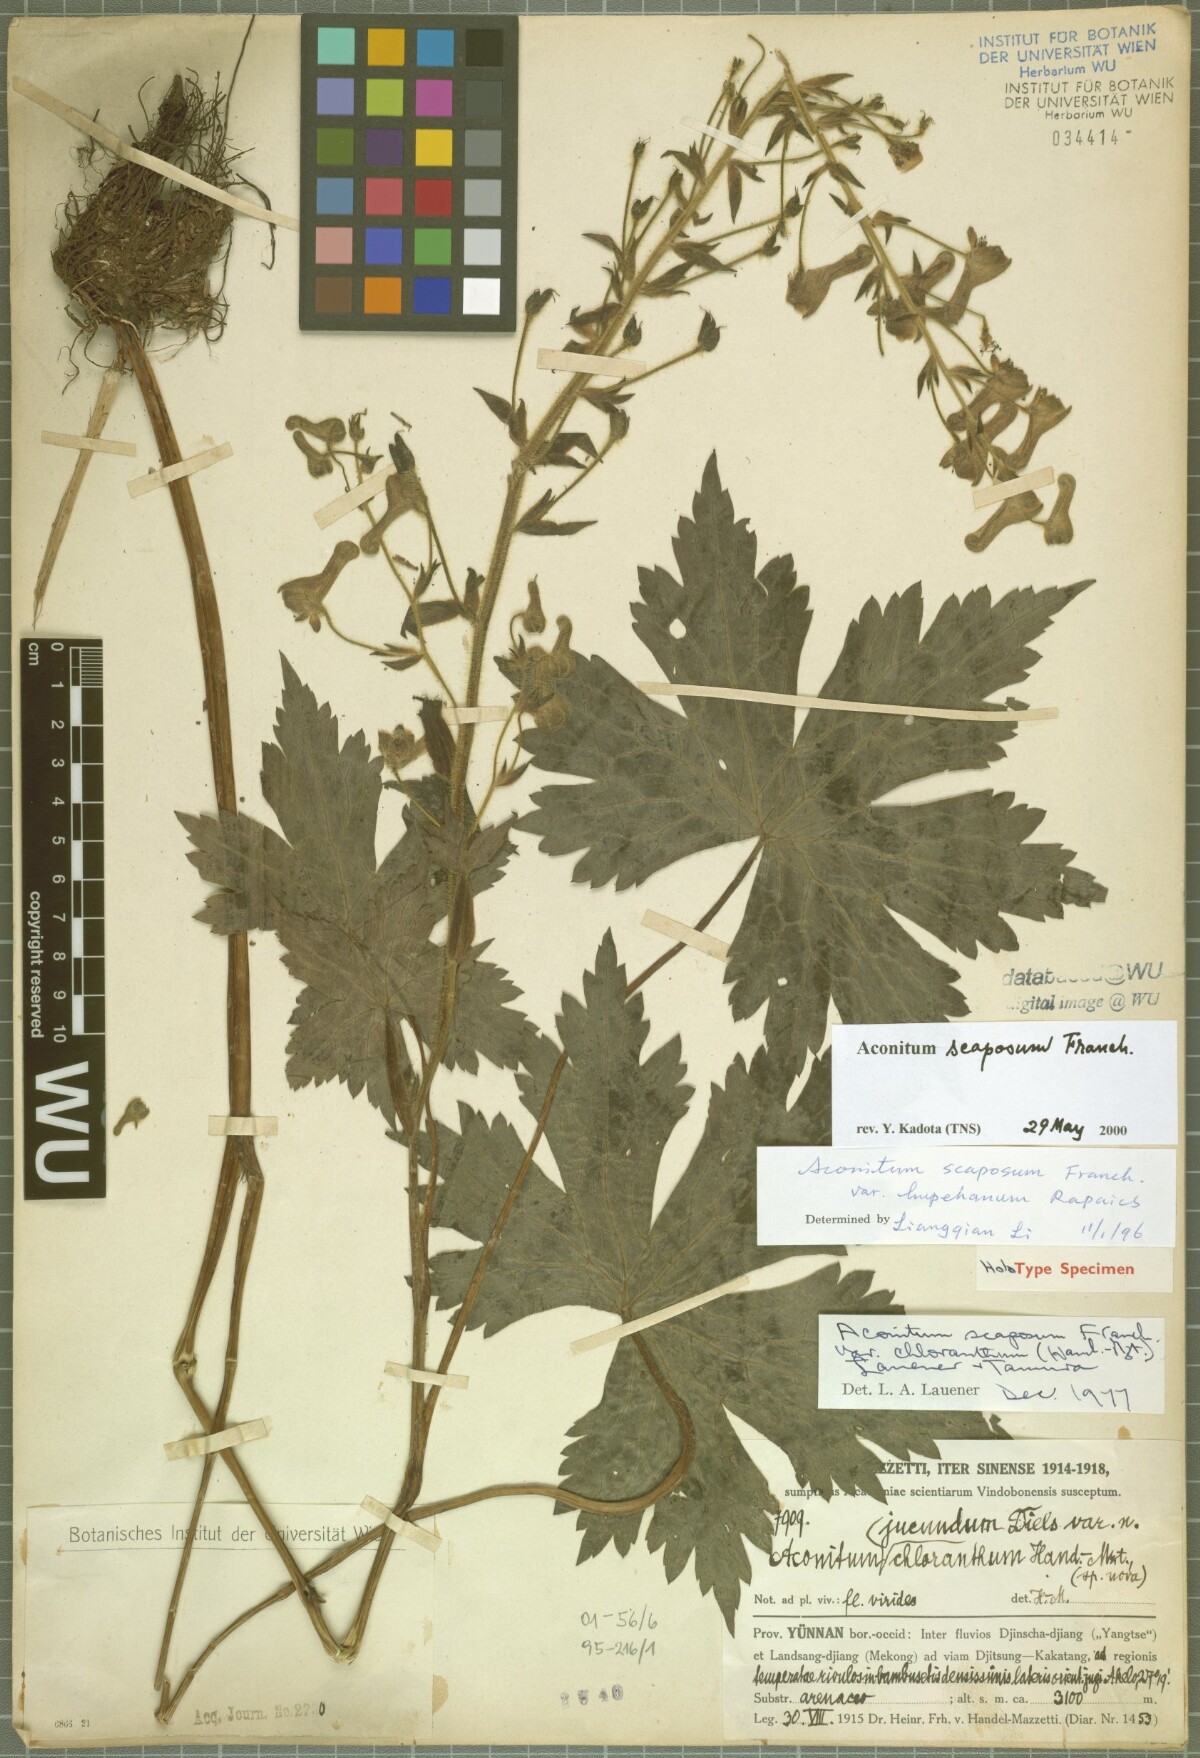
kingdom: Plantae
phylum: Tracheophyta
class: Magnoliopsida
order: Ranunculales
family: Ranunculaceae
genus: Aconitum
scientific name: Aconitum scaposum
